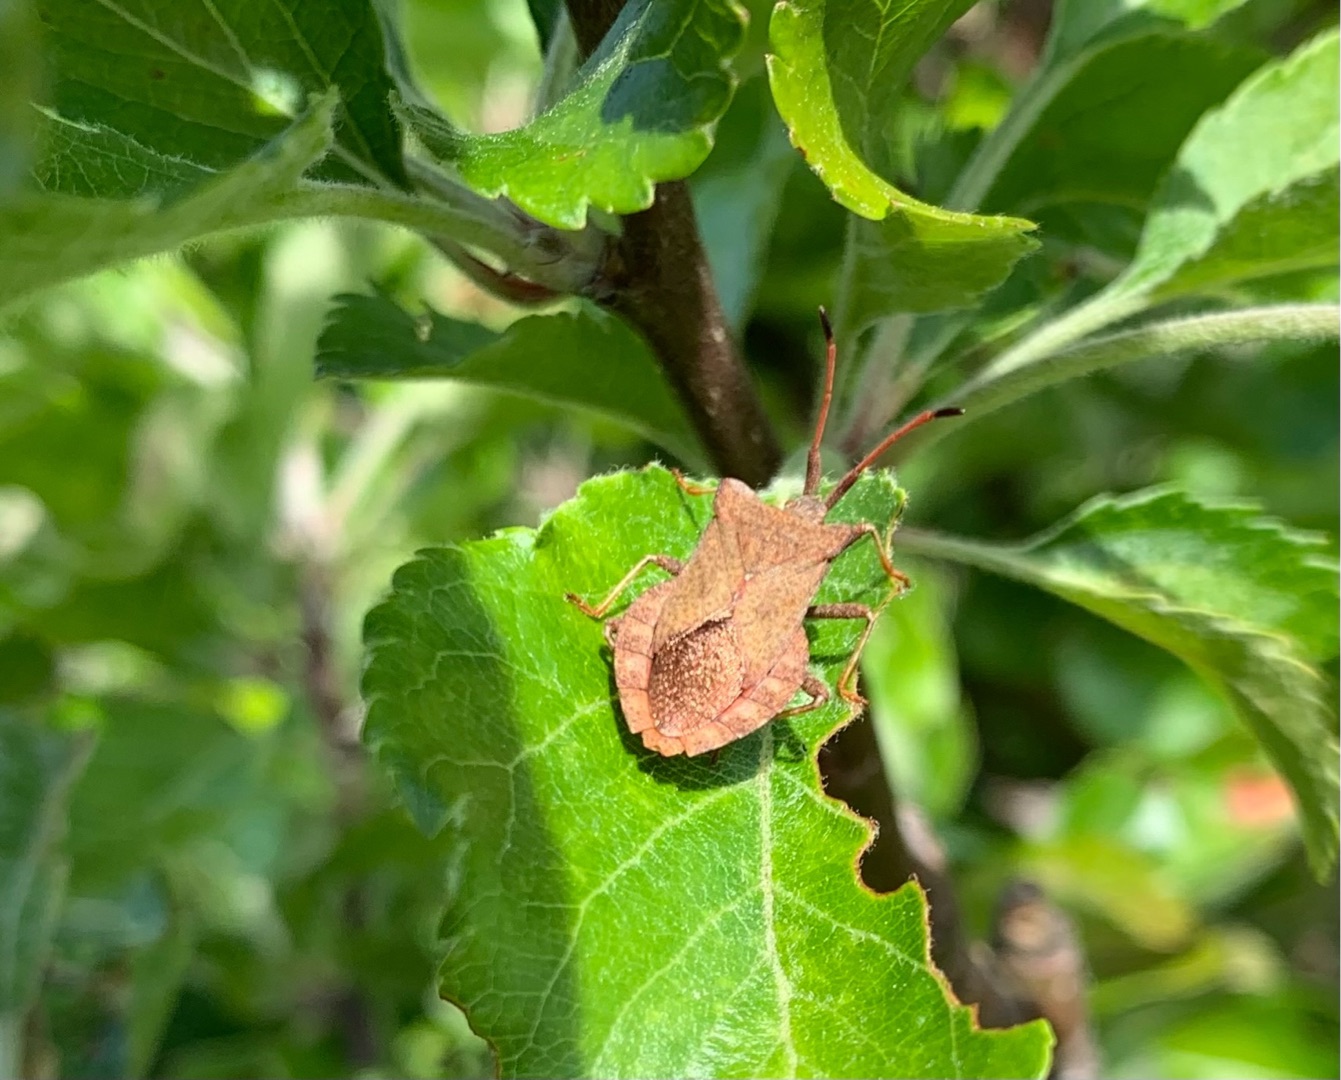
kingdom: Animalia
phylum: Arthropoda
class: Insecta
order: Hemiptera
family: Coreidae
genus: Coreus
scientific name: Coreus marginatus
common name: Skræppetæge
